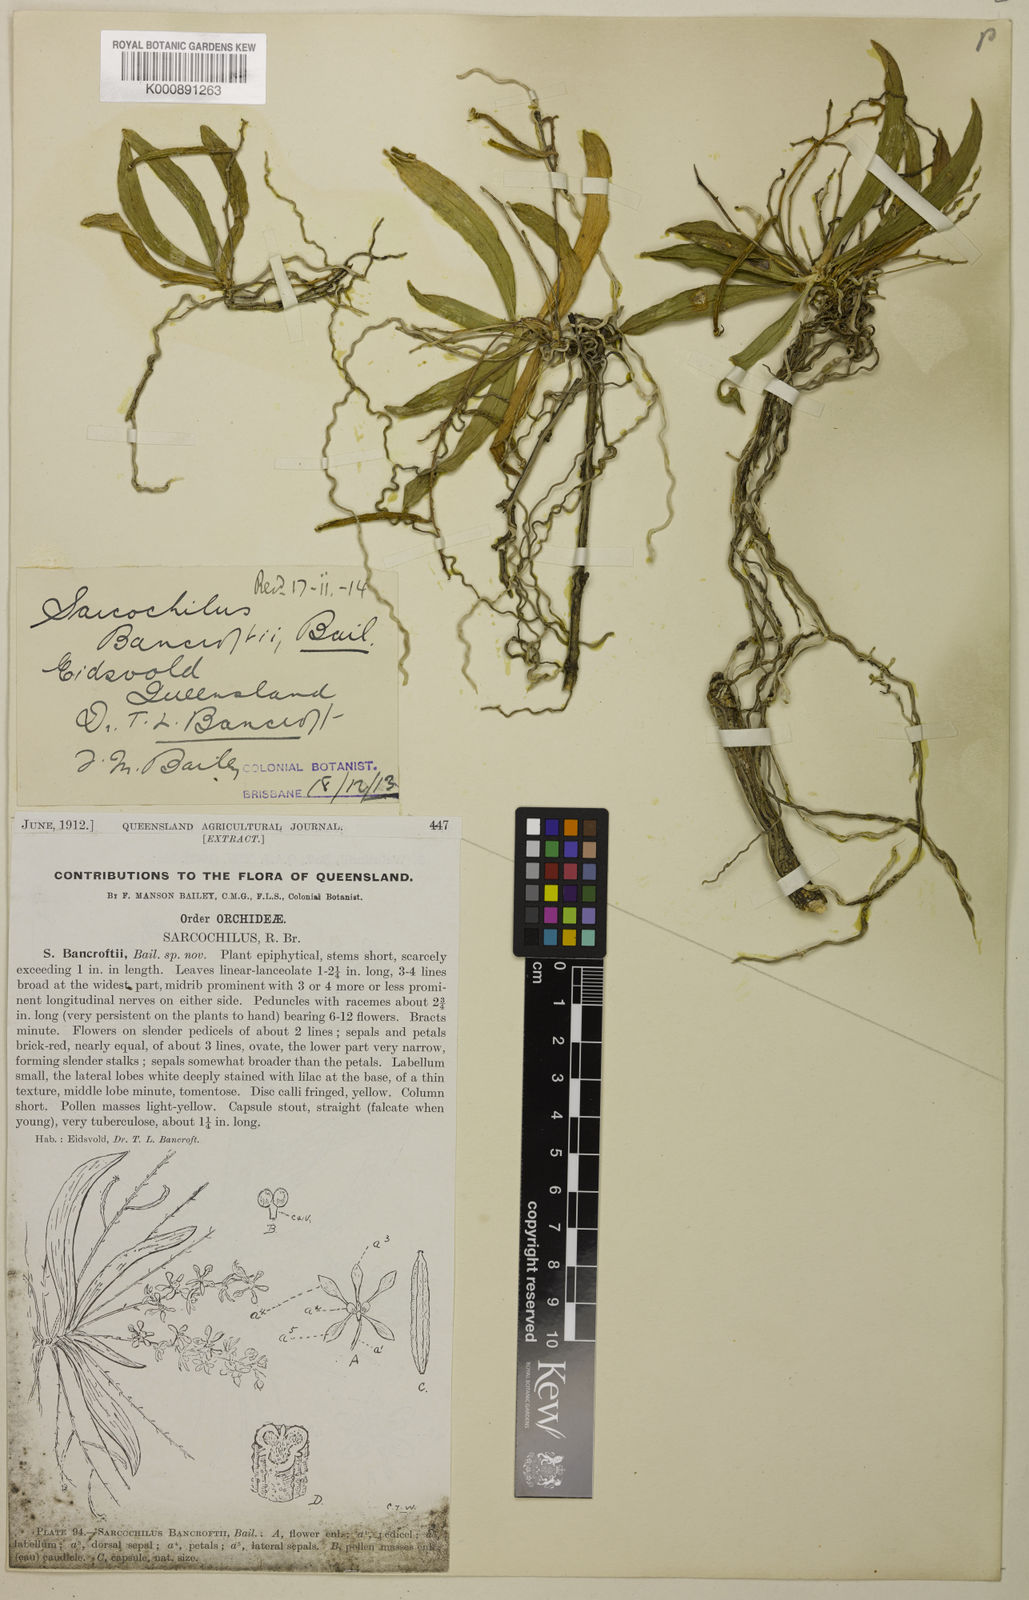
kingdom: Plantae
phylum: Tracheophyta
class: Liliopsida
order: Asparagales
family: Orchidaceae
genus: Sarcochilus
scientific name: Sarcochilus dilatatus
